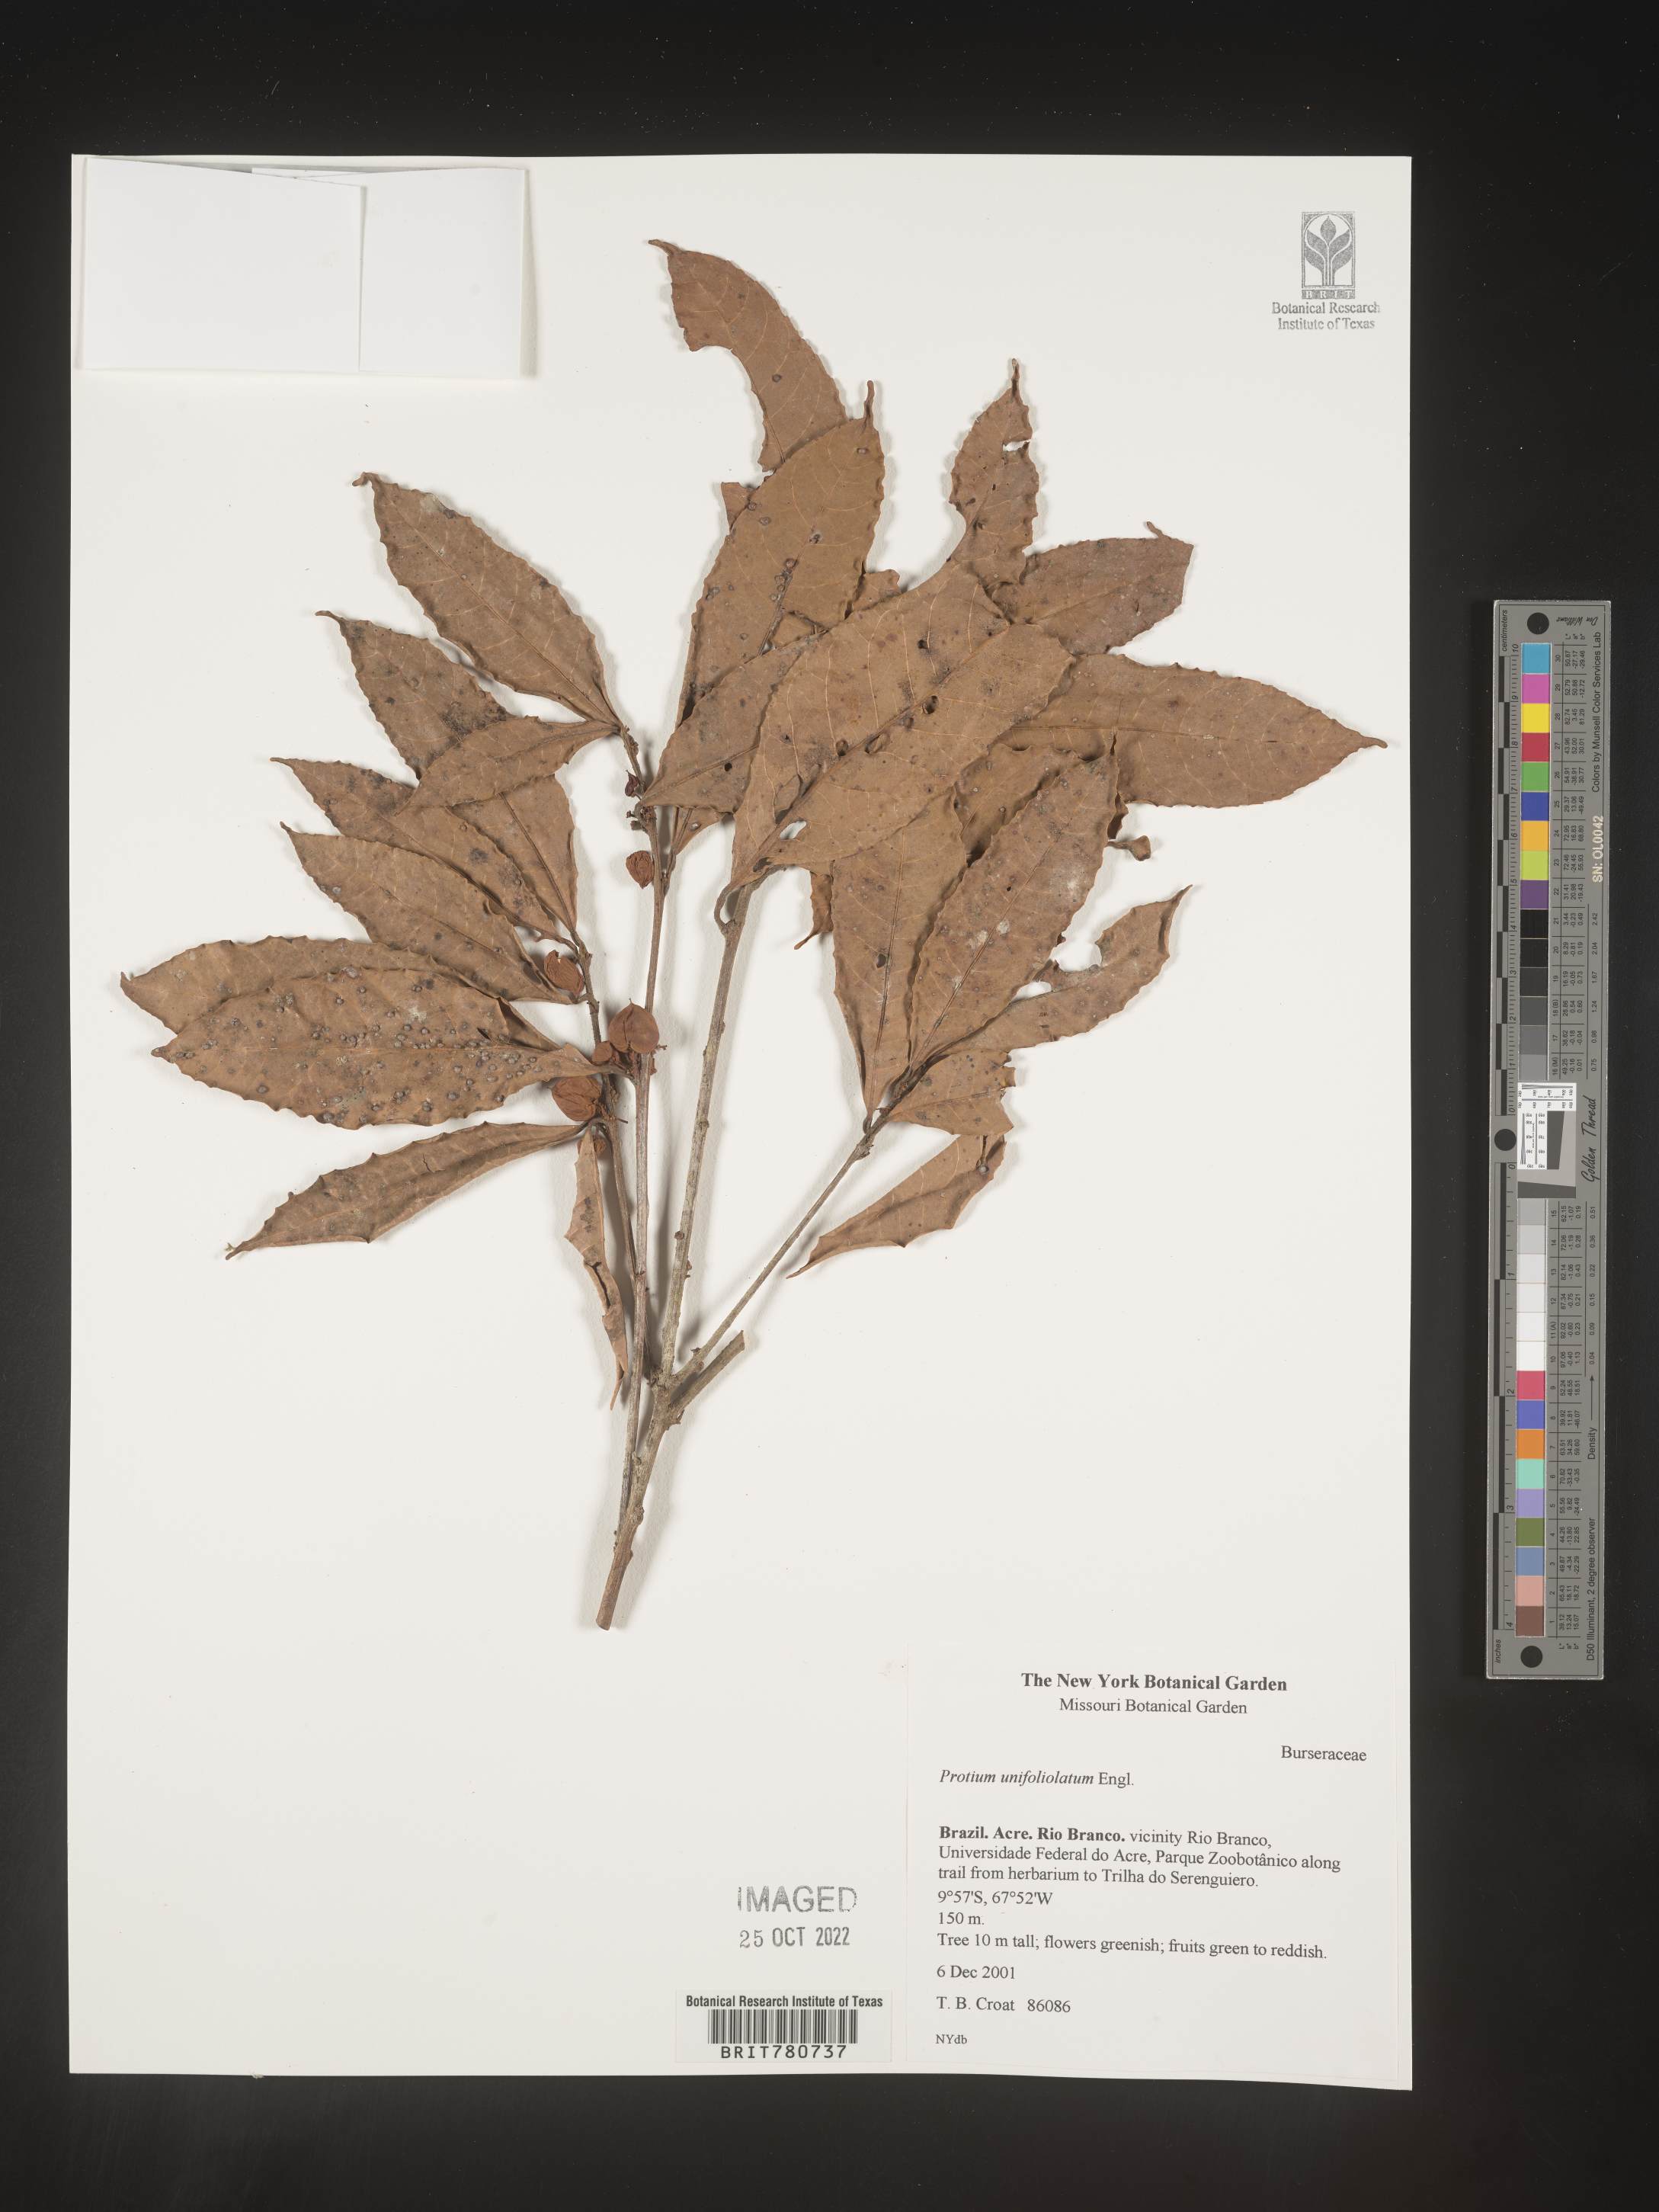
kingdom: Plantae
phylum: Tracheophyta
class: Magnoliopsida
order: Sapindales
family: Burseraceae
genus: Protium
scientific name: Protium
